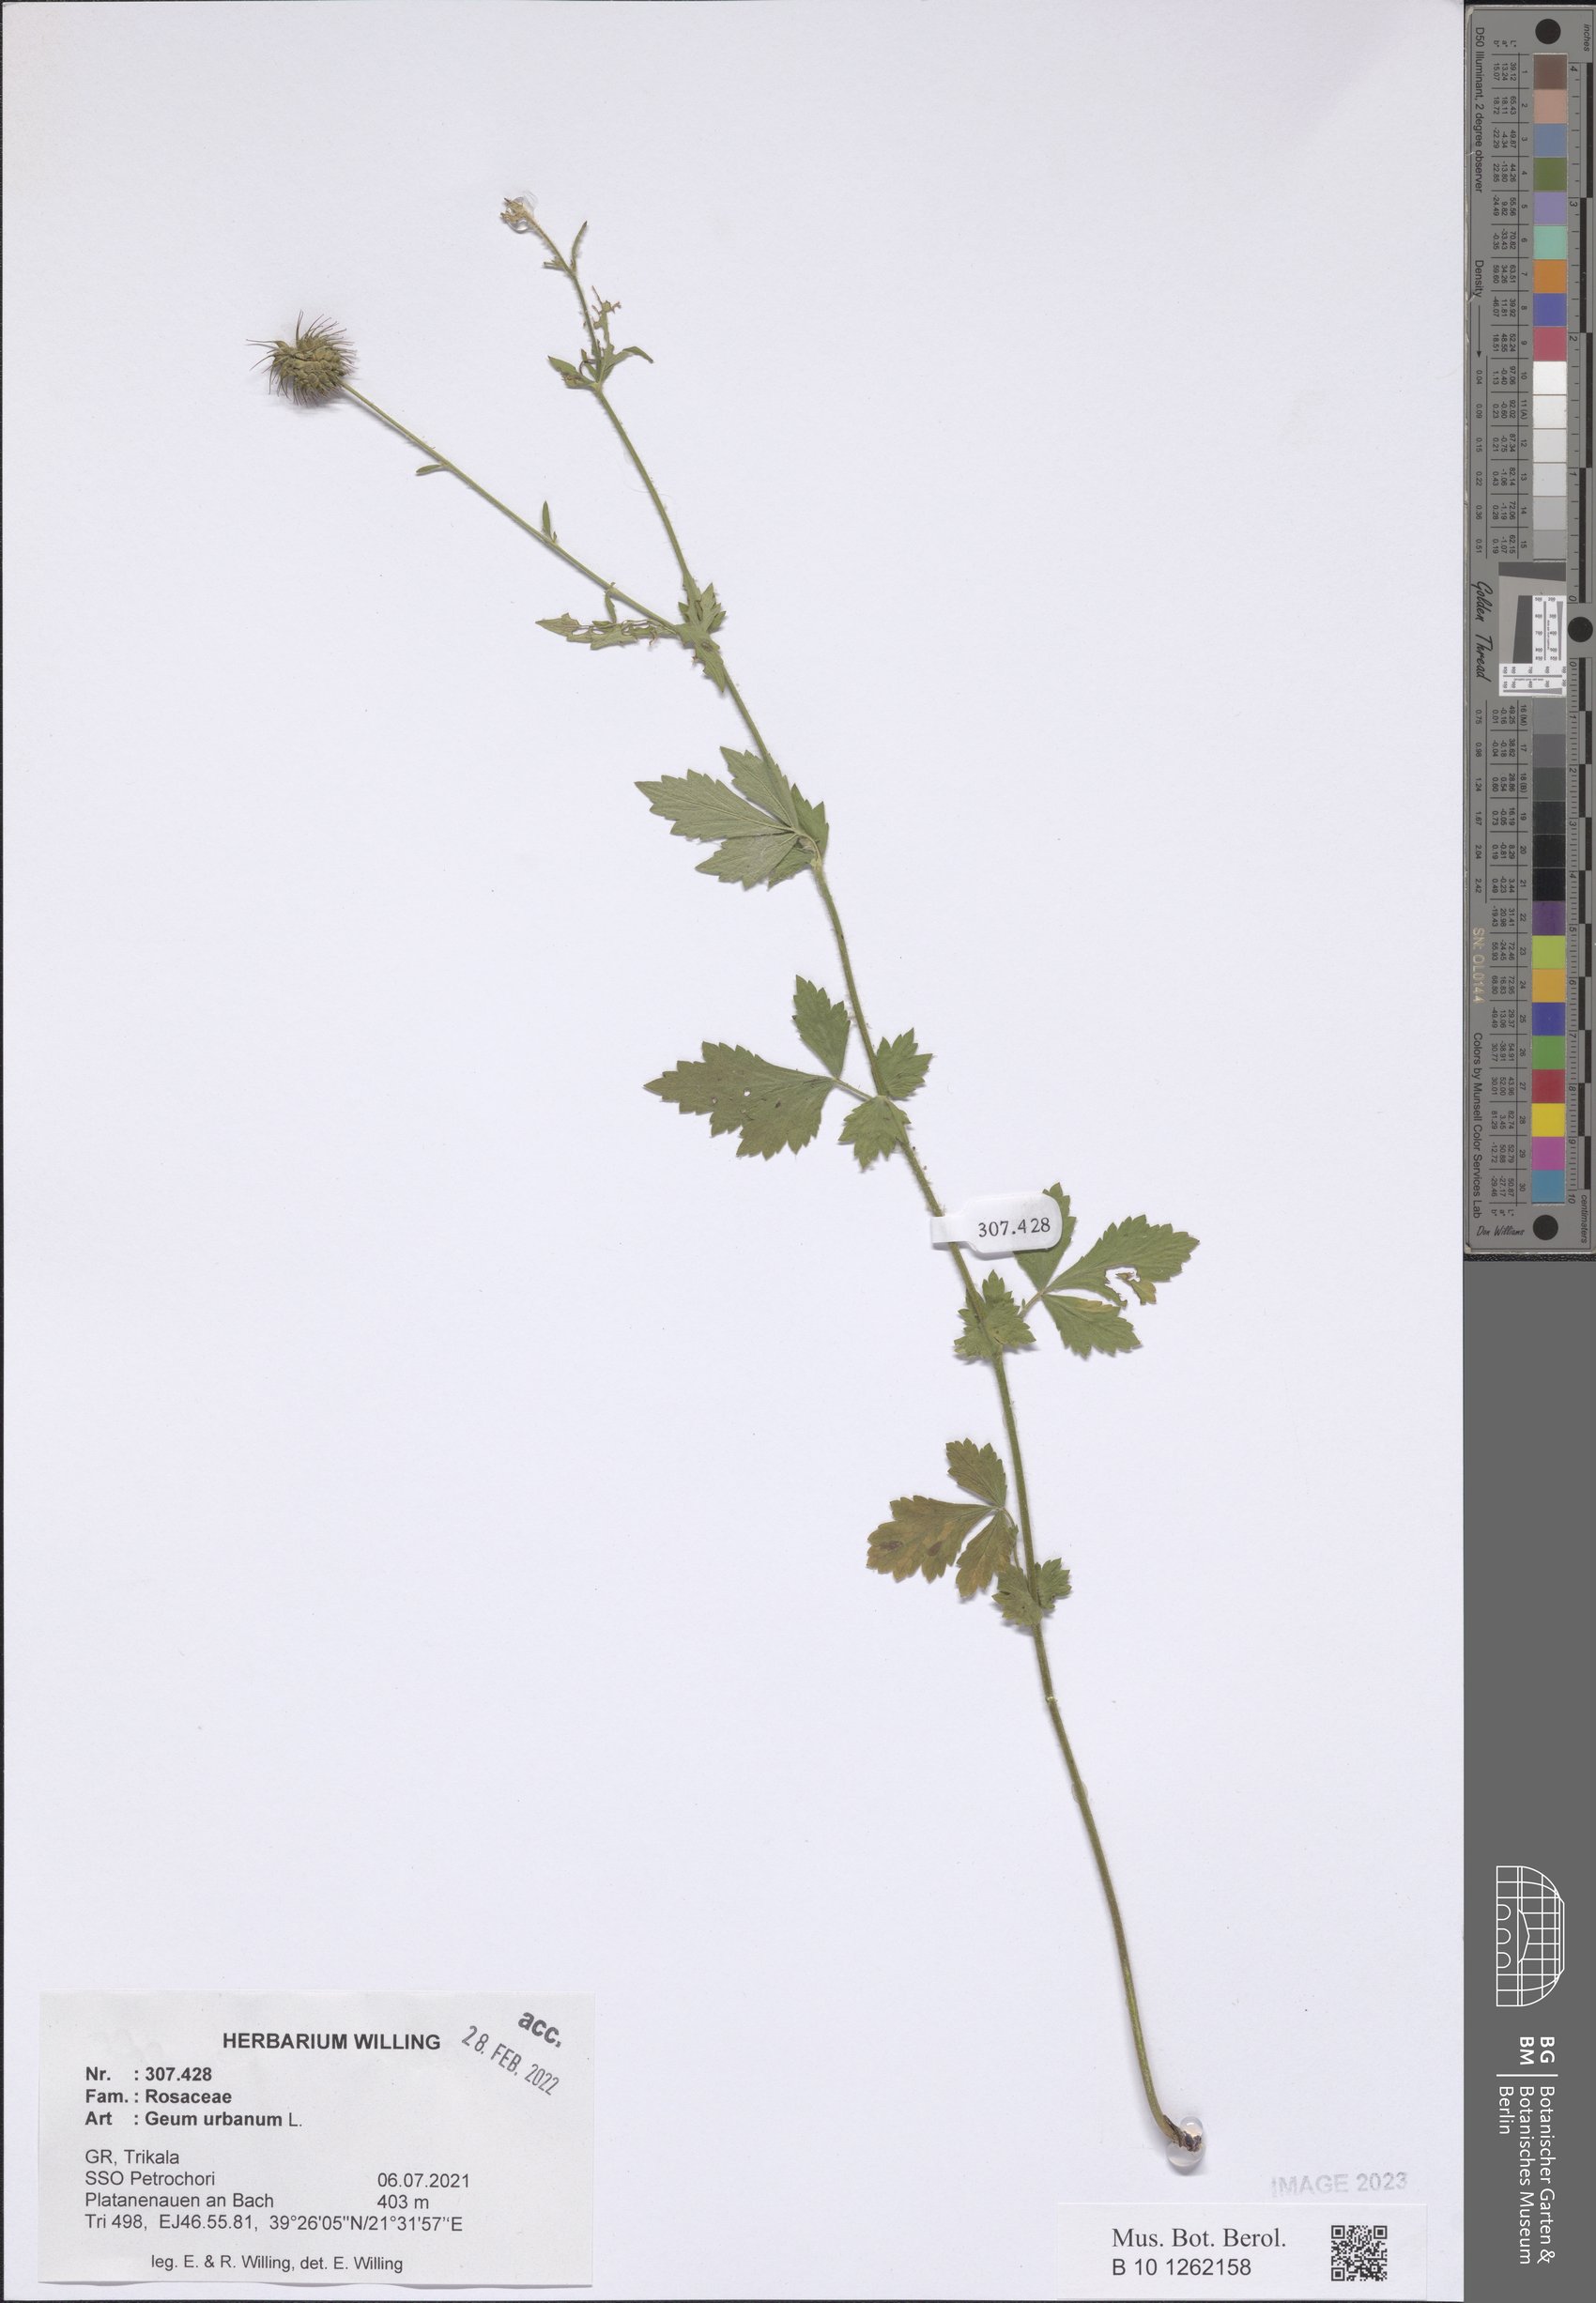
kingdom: Plantae
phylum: Tracheophyta
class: Magnoliopsida
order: Rosales
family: Rosaceae
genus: Geum
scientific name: Geum urbanum
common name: Wood avens
